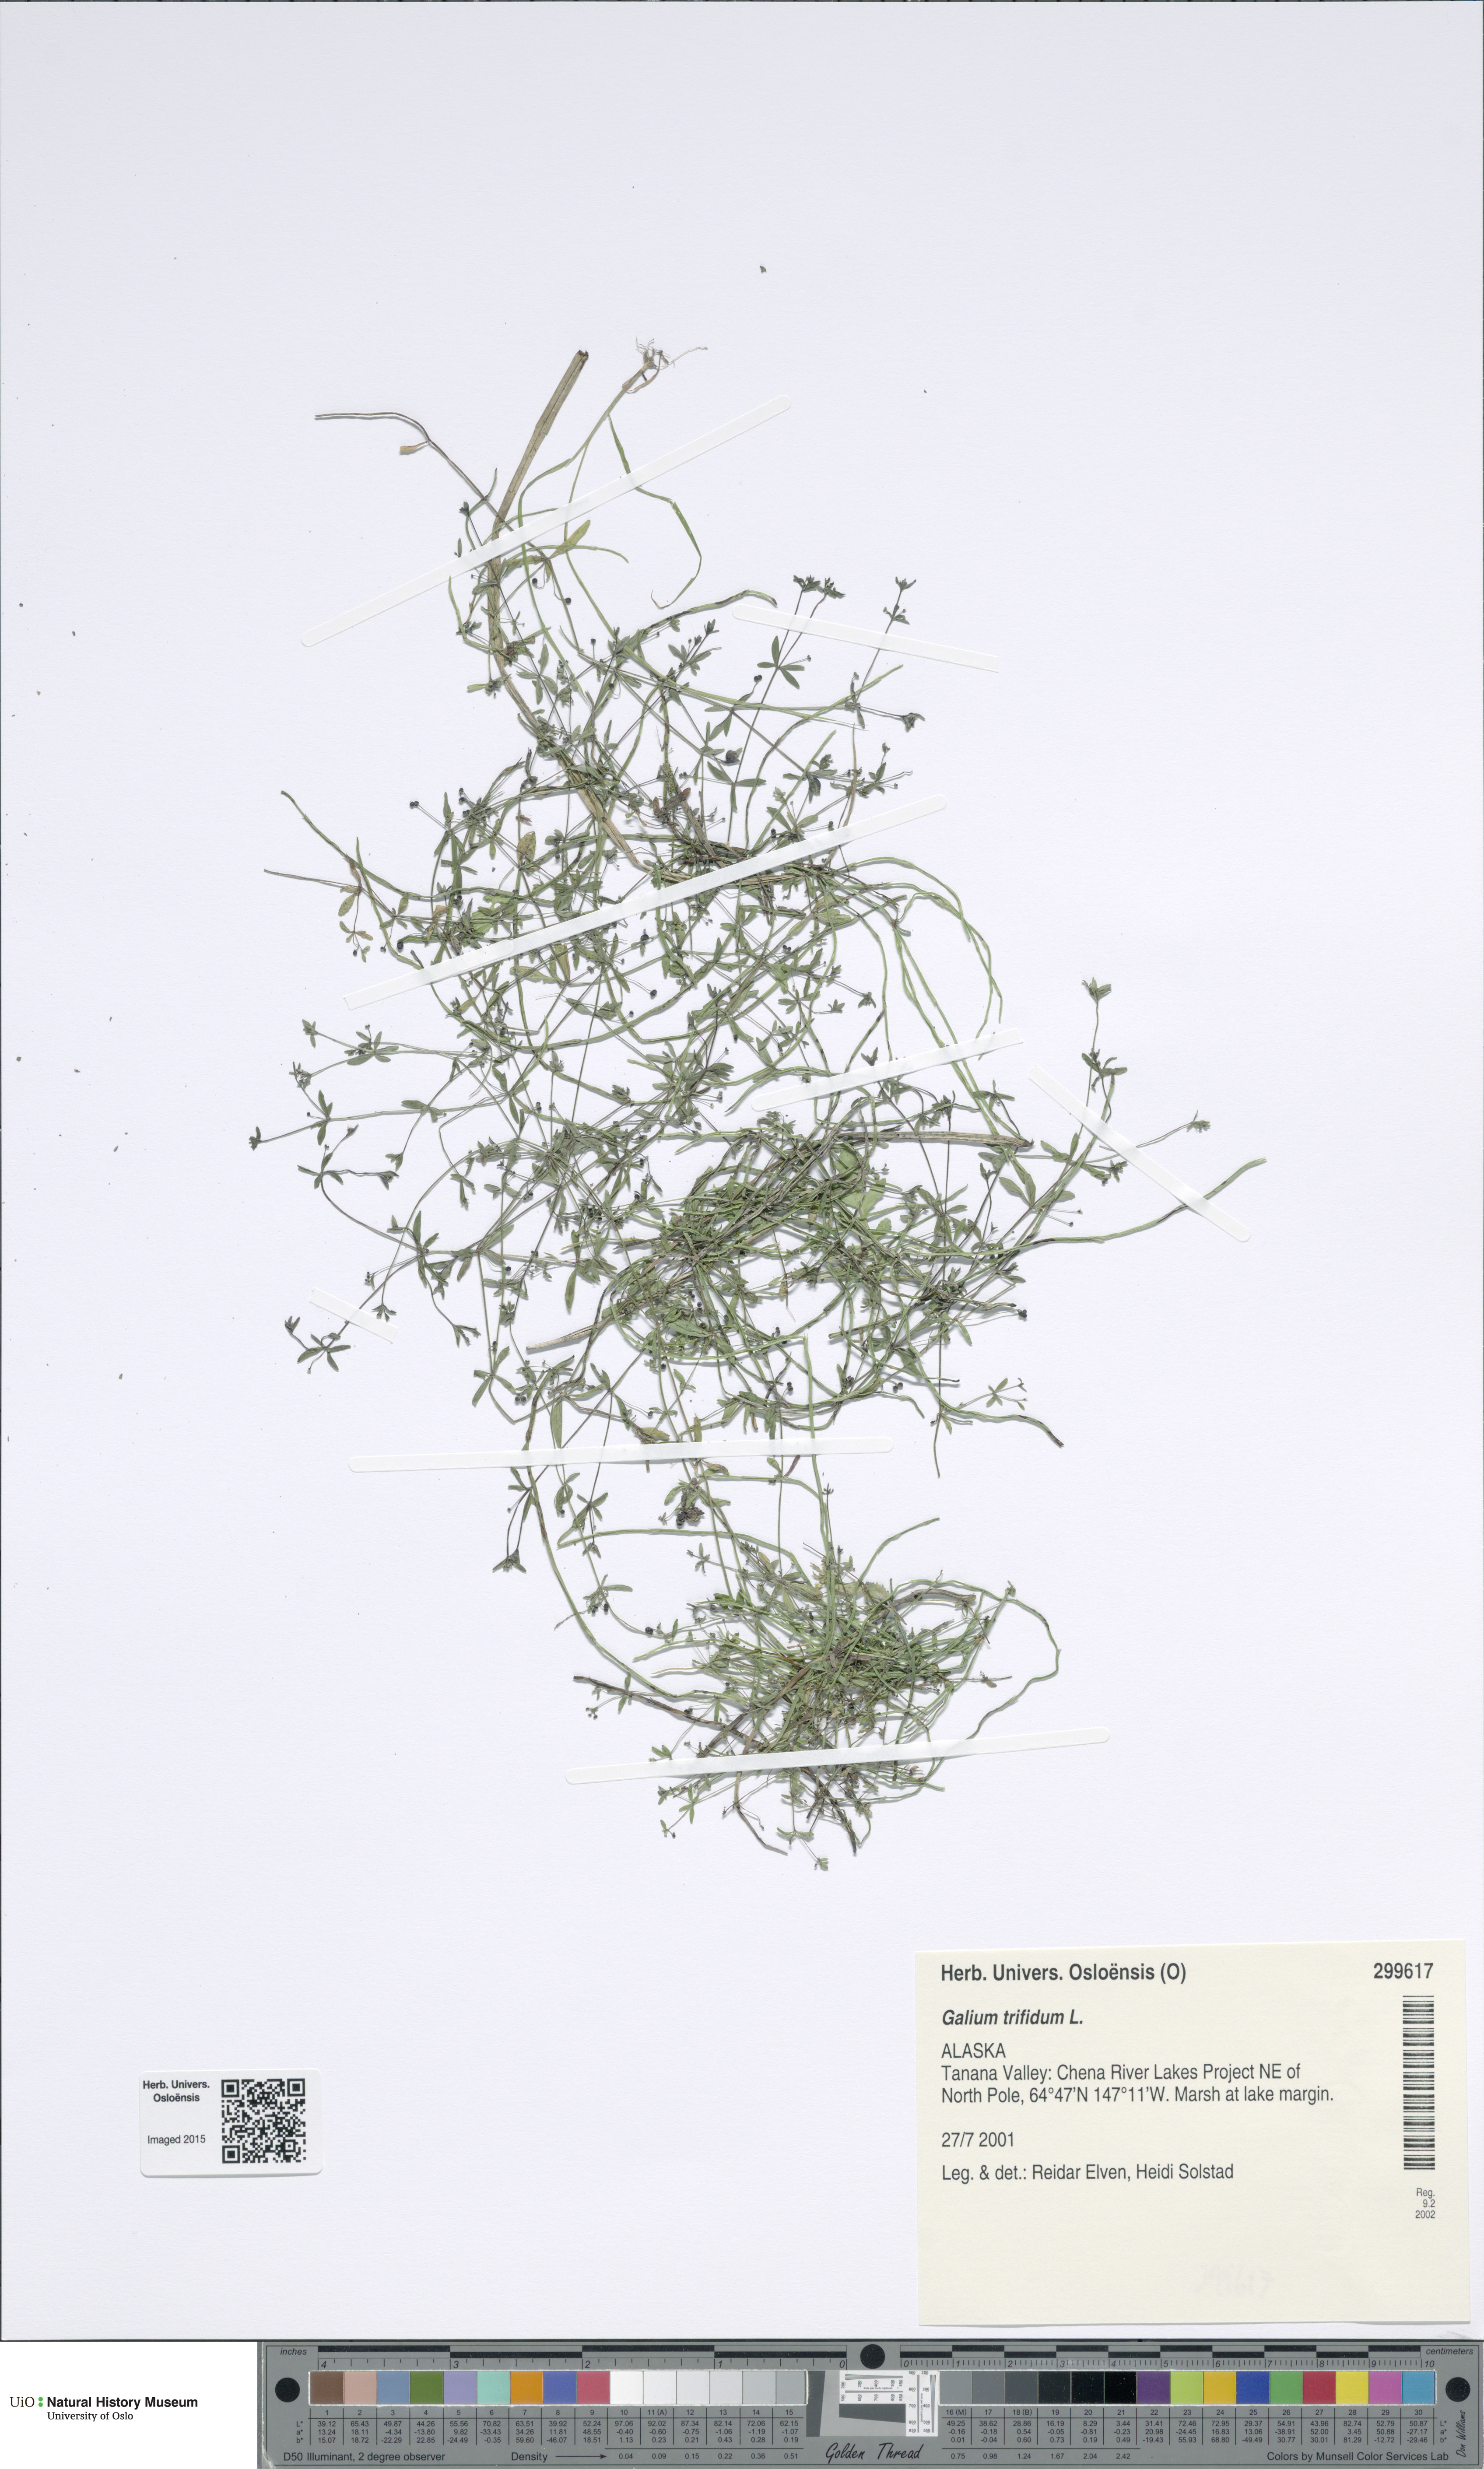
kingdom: Plantae
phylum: Tracheophyta
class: Magnoliopsida
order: Gentianales
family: Rubiaceae
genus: Galium
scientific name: Galium trifidum
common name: Small bedstraw
